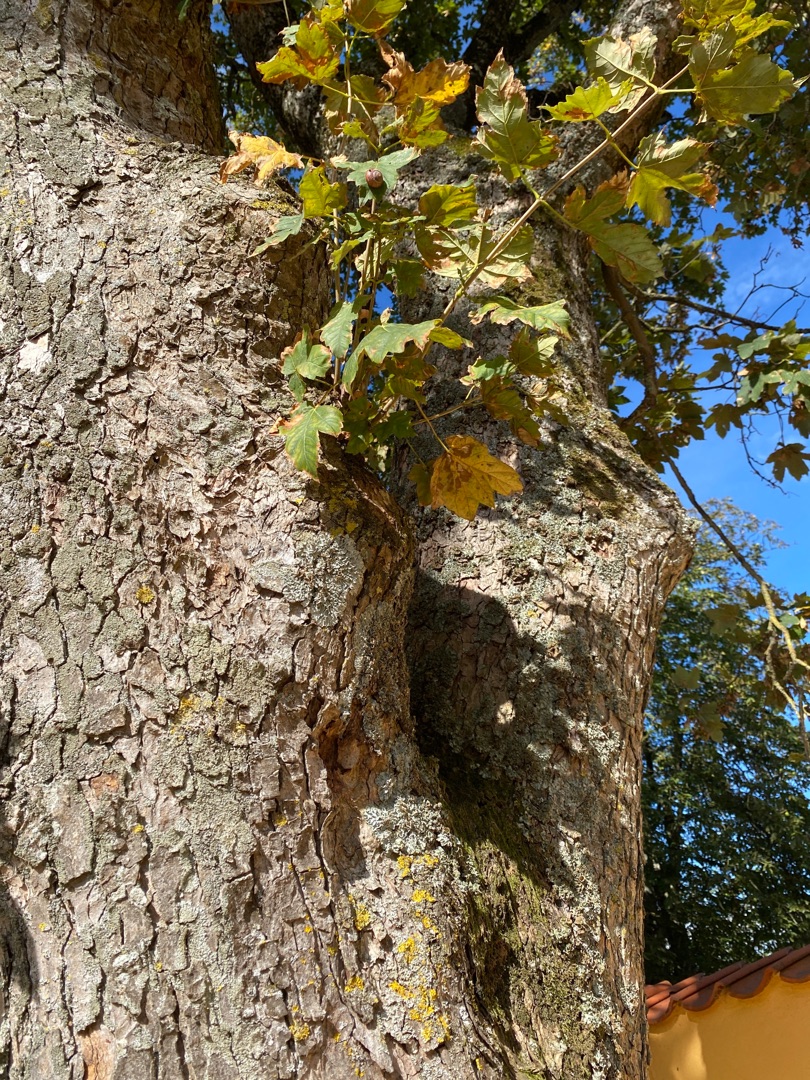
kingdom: Plantae
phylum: Tracheophyta
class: Magnoliopsida
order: Sapindales
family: Sapindaceae
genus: Acer
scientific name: Acer pseudoplatanus
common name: Ahorn
